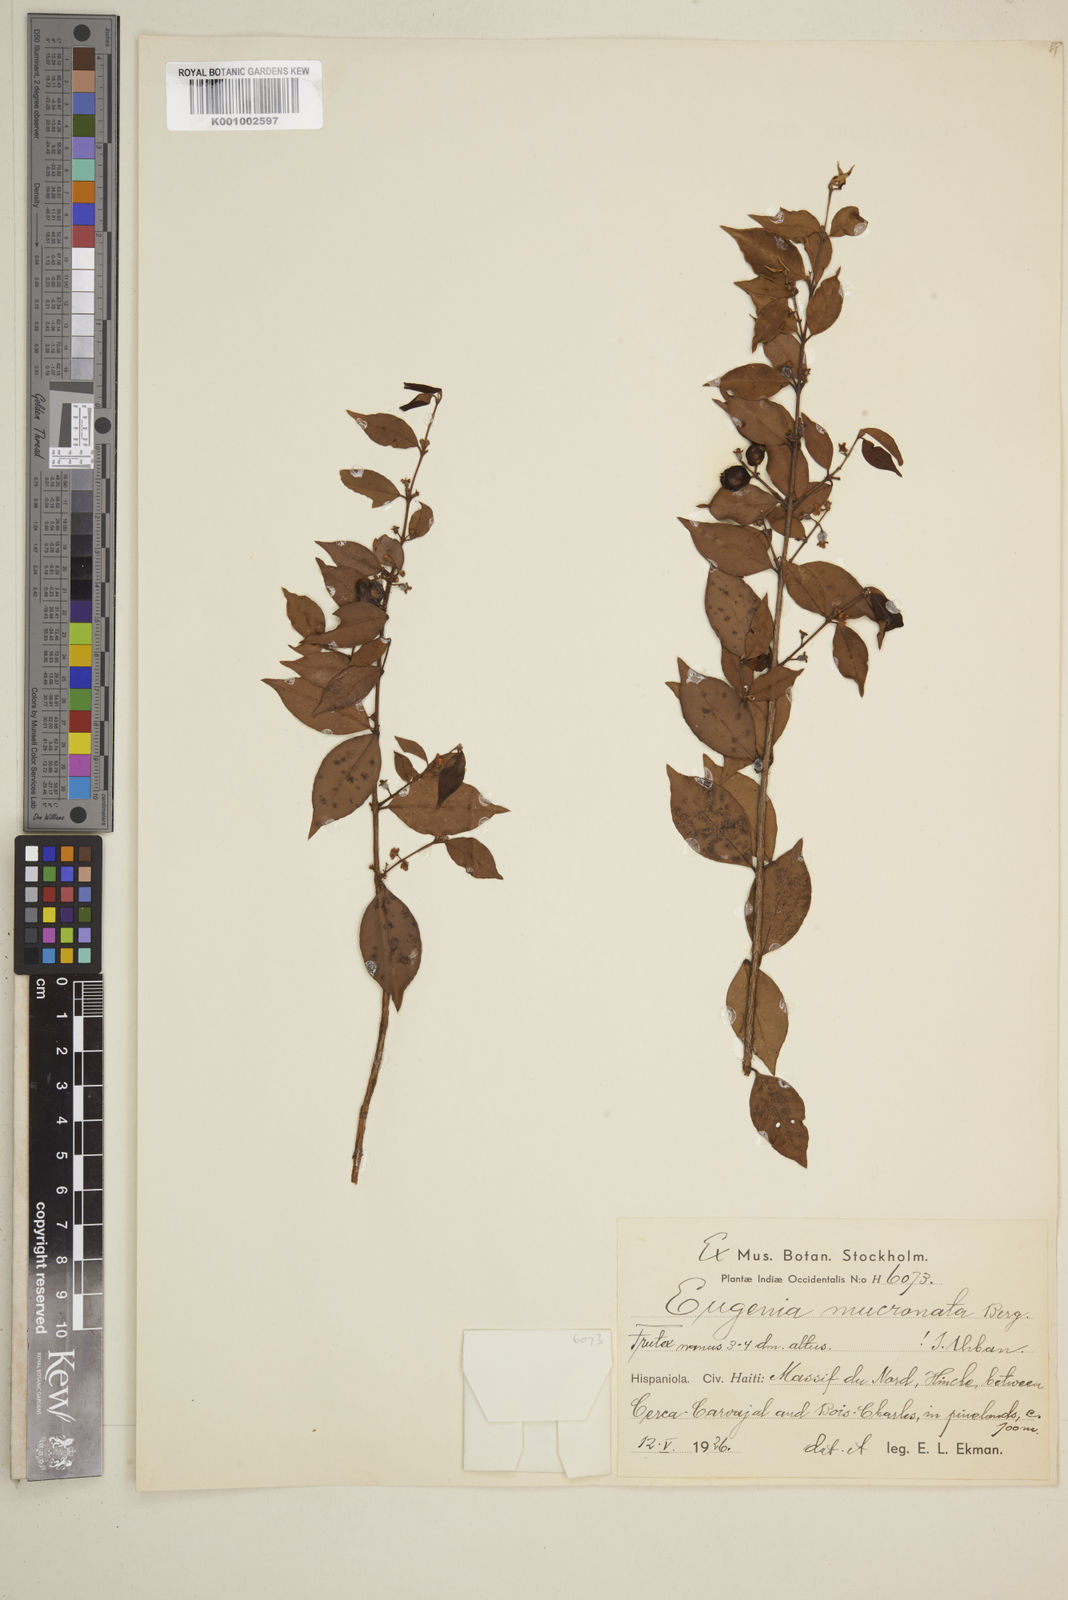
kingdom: Plantae
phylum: Tracheophyta
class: Magnoliopsida
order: Myrtales
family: Myrtaceae
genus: Eugenia
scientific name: Eugenia mucronata
